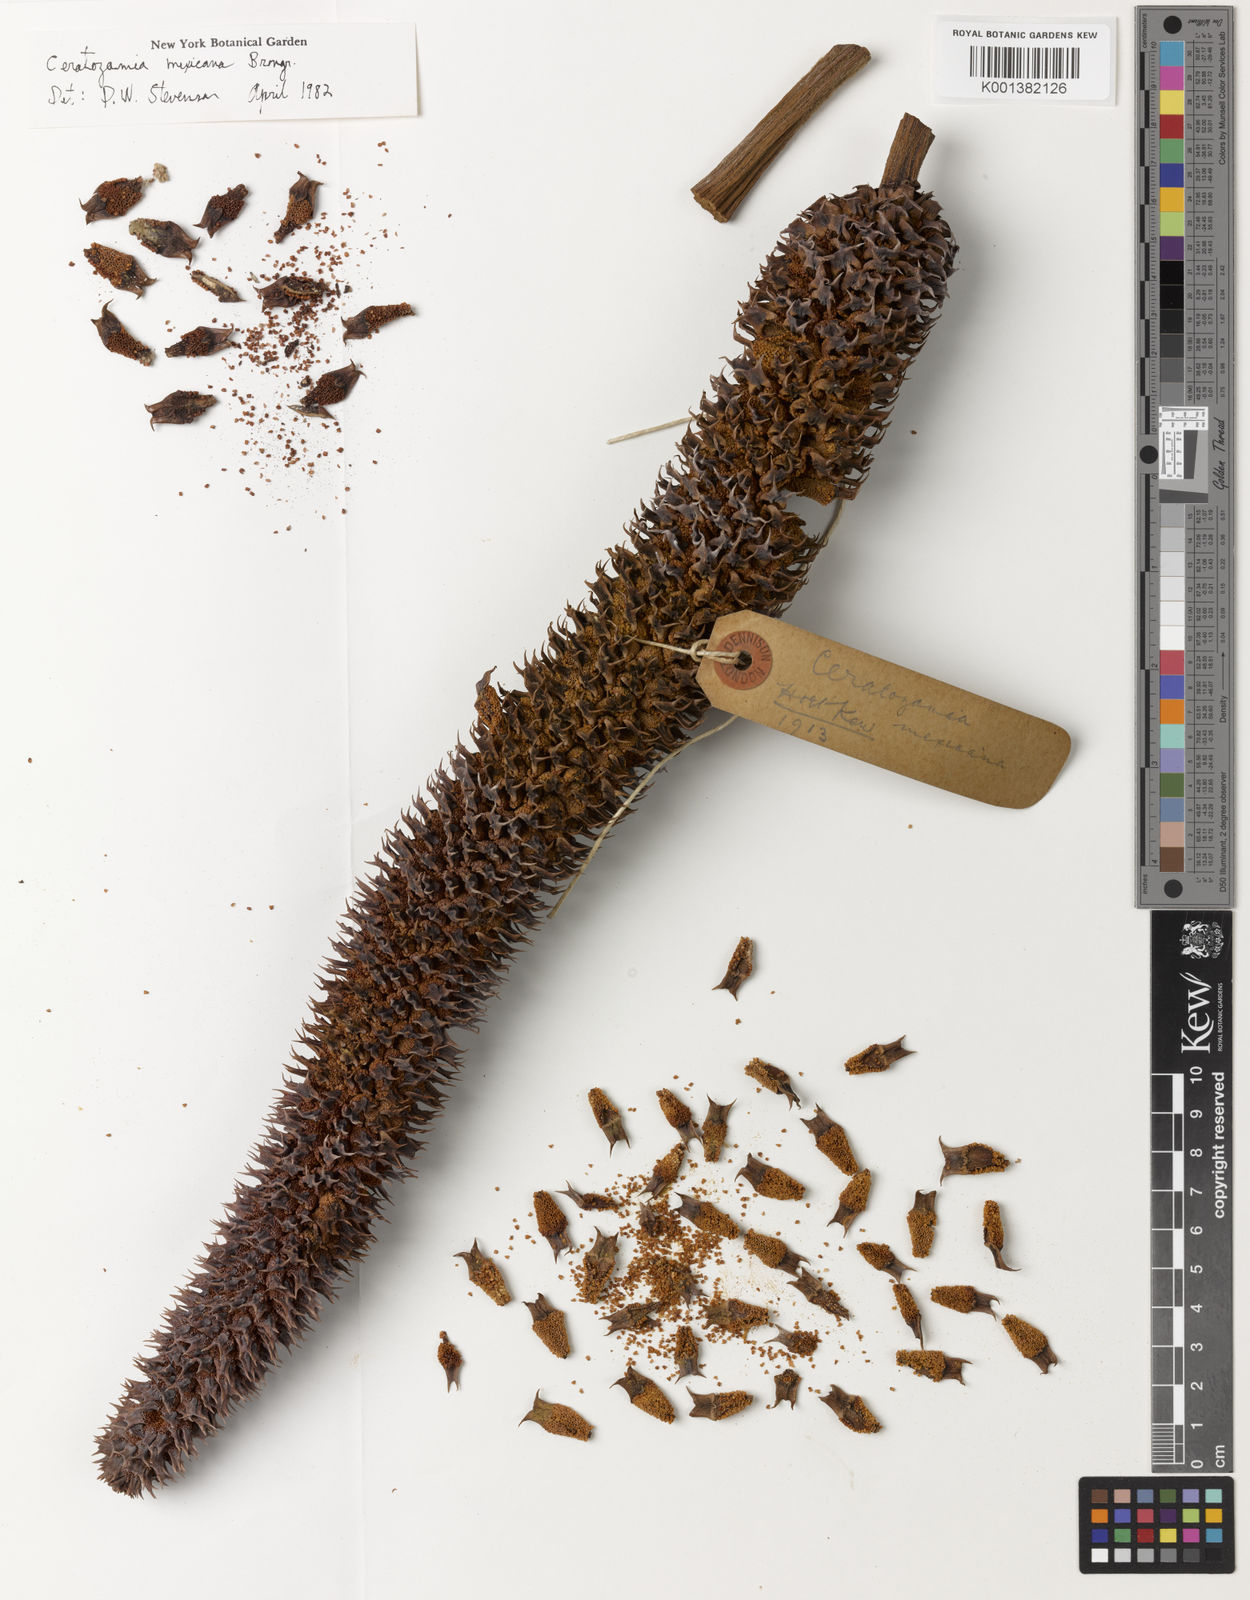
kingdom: Plantae
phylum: Tracheophyta
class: Cycadopsida
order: Cycadales
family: Zamiaceae
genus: Ceratozamia
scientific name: Ceratozamia mexicana
